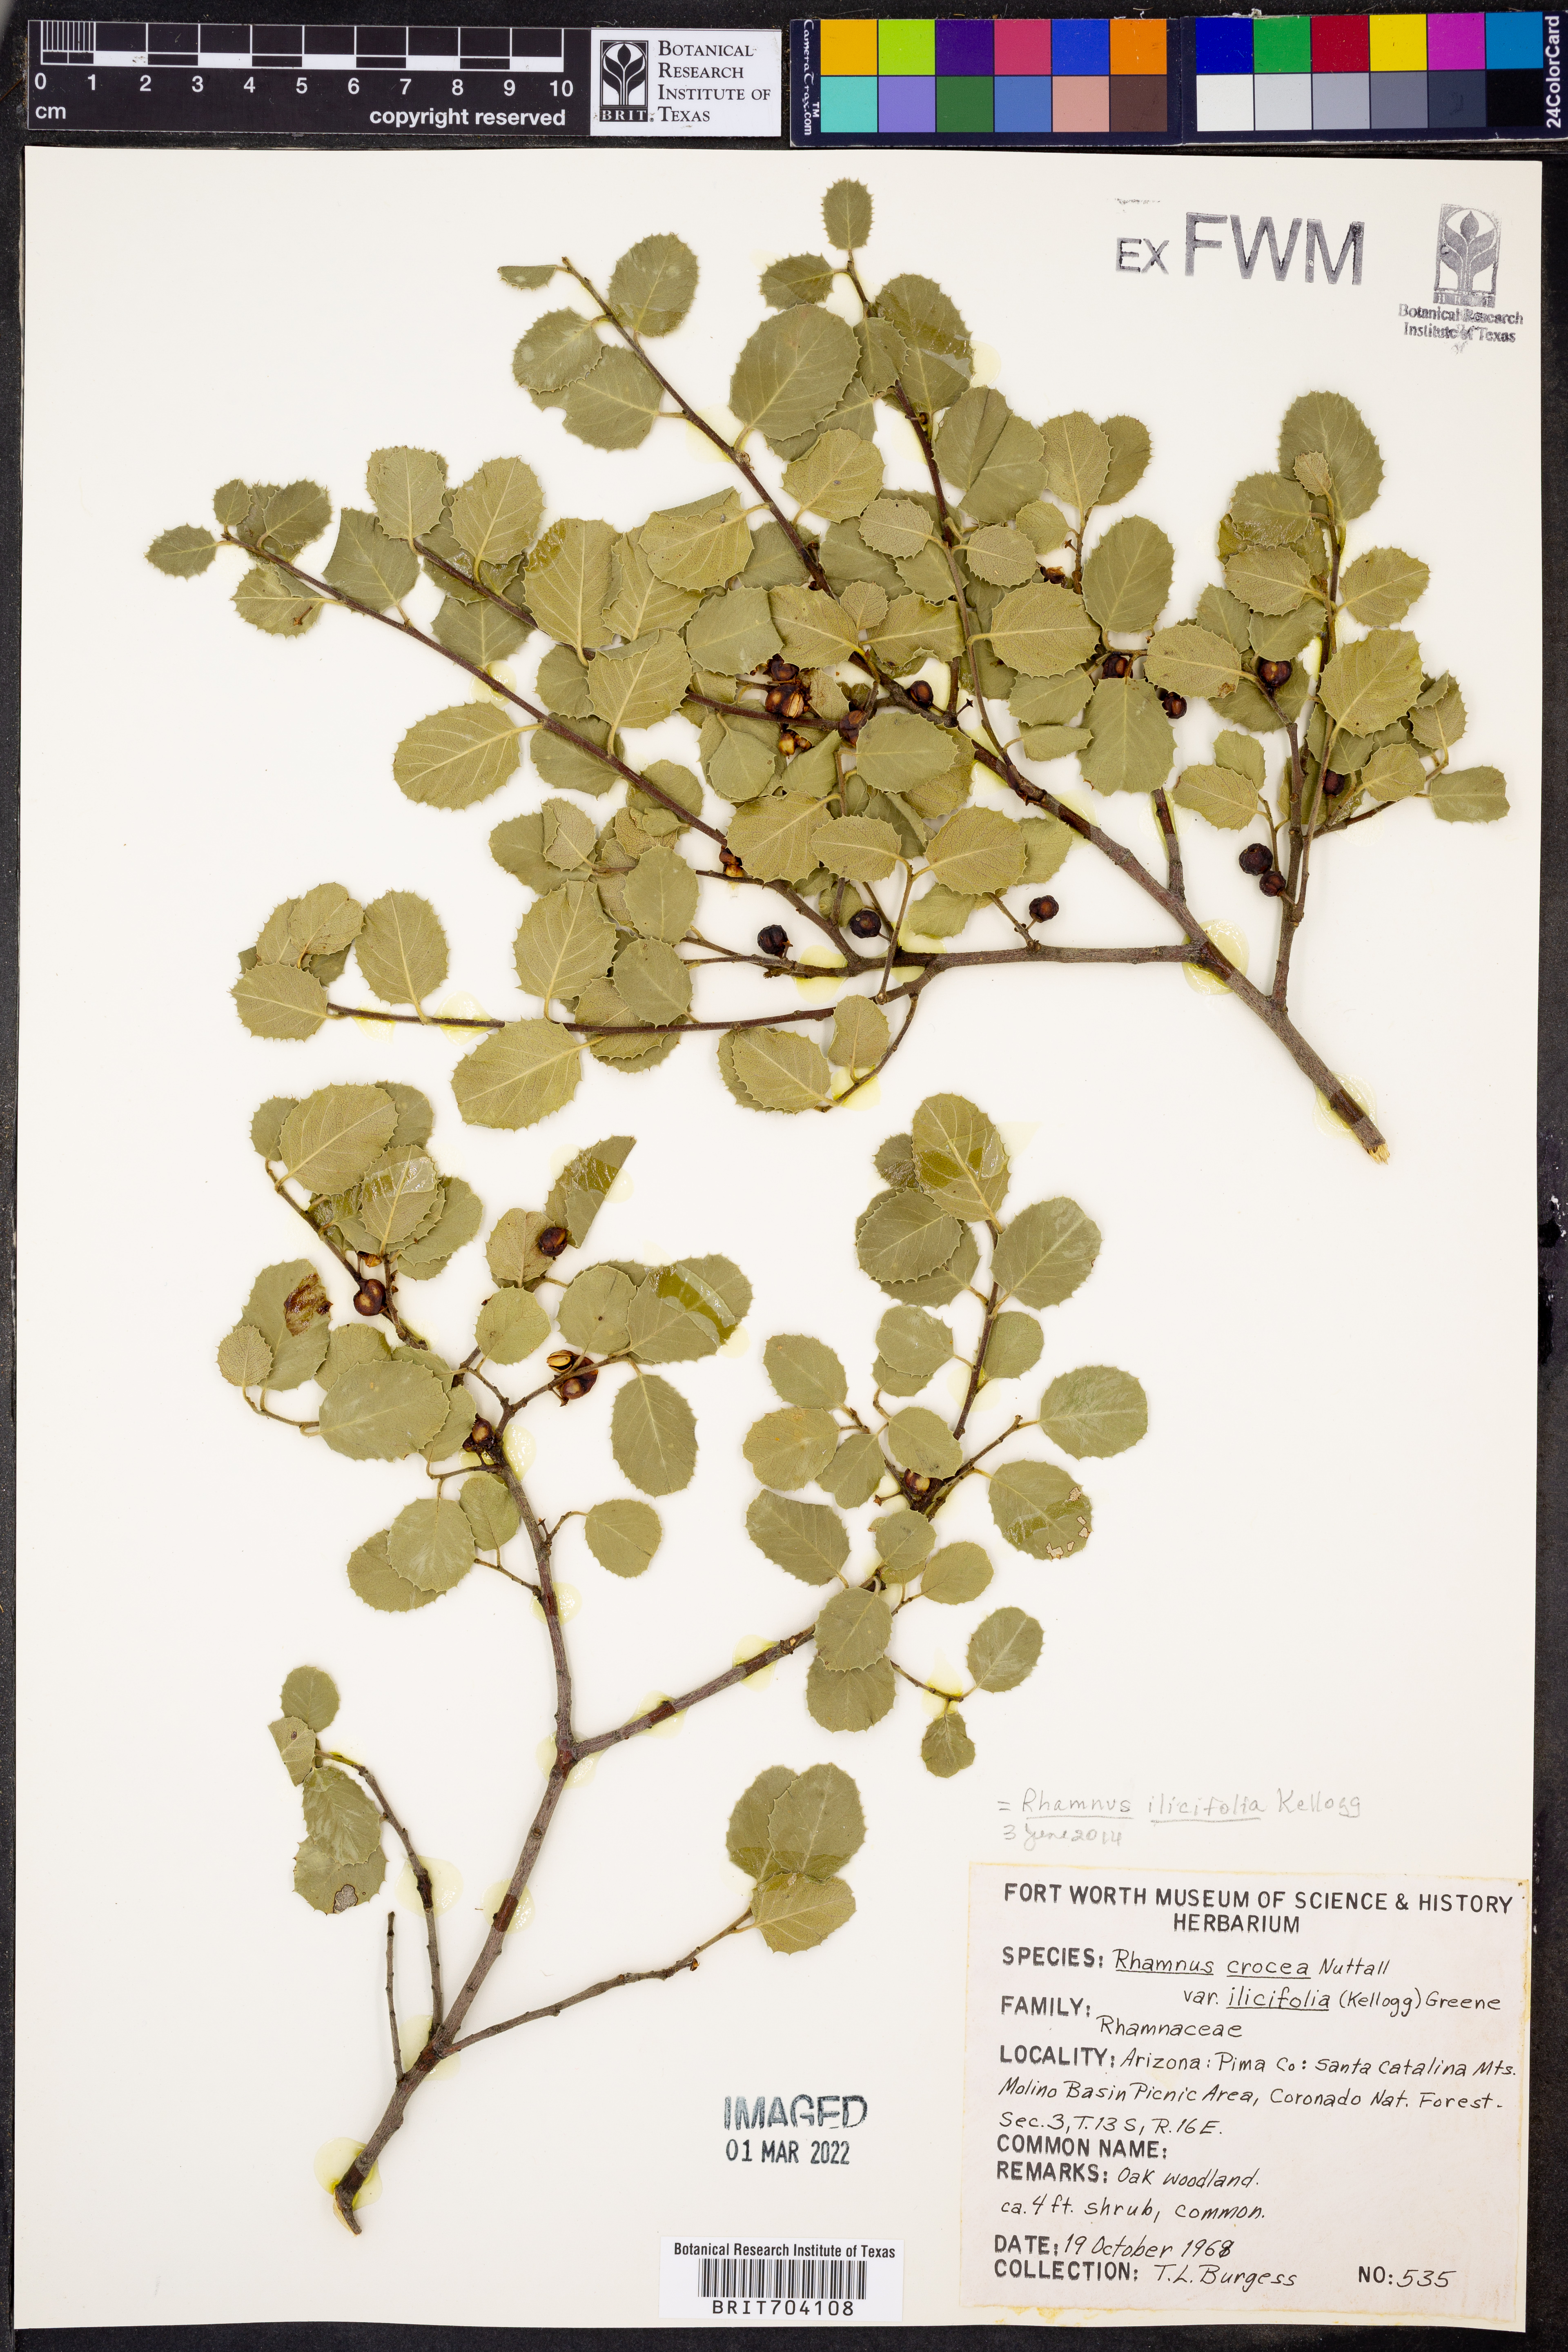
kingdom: Plantae
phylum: Tracheophyta
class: Magnoliopsida
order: Rosales
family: Rhamnaceae
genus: Endotropis
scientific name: Endotropis crocea
